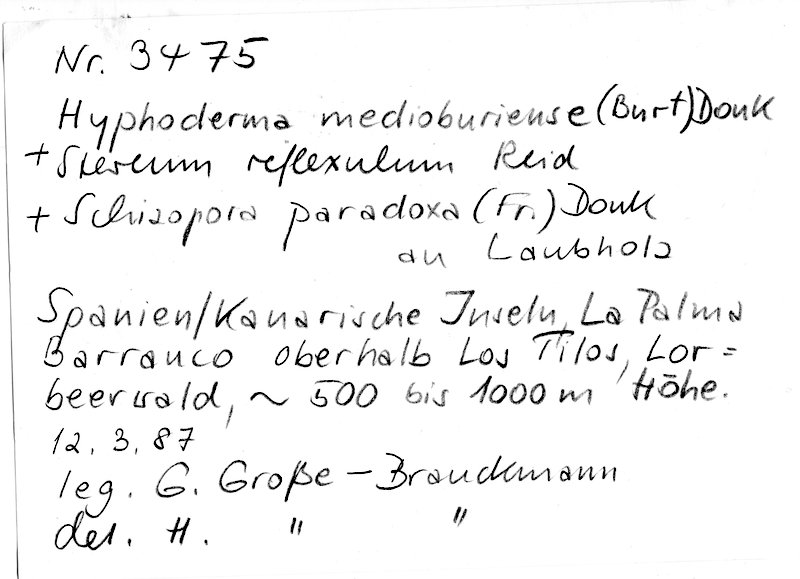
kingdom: Fungi
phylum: Basidiomycota
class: Agaricomycetes
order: Hymenochaetales
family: Schizoporaceae
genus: Schizopora
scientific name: Schizopora paradoxa
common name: Split porecrust
